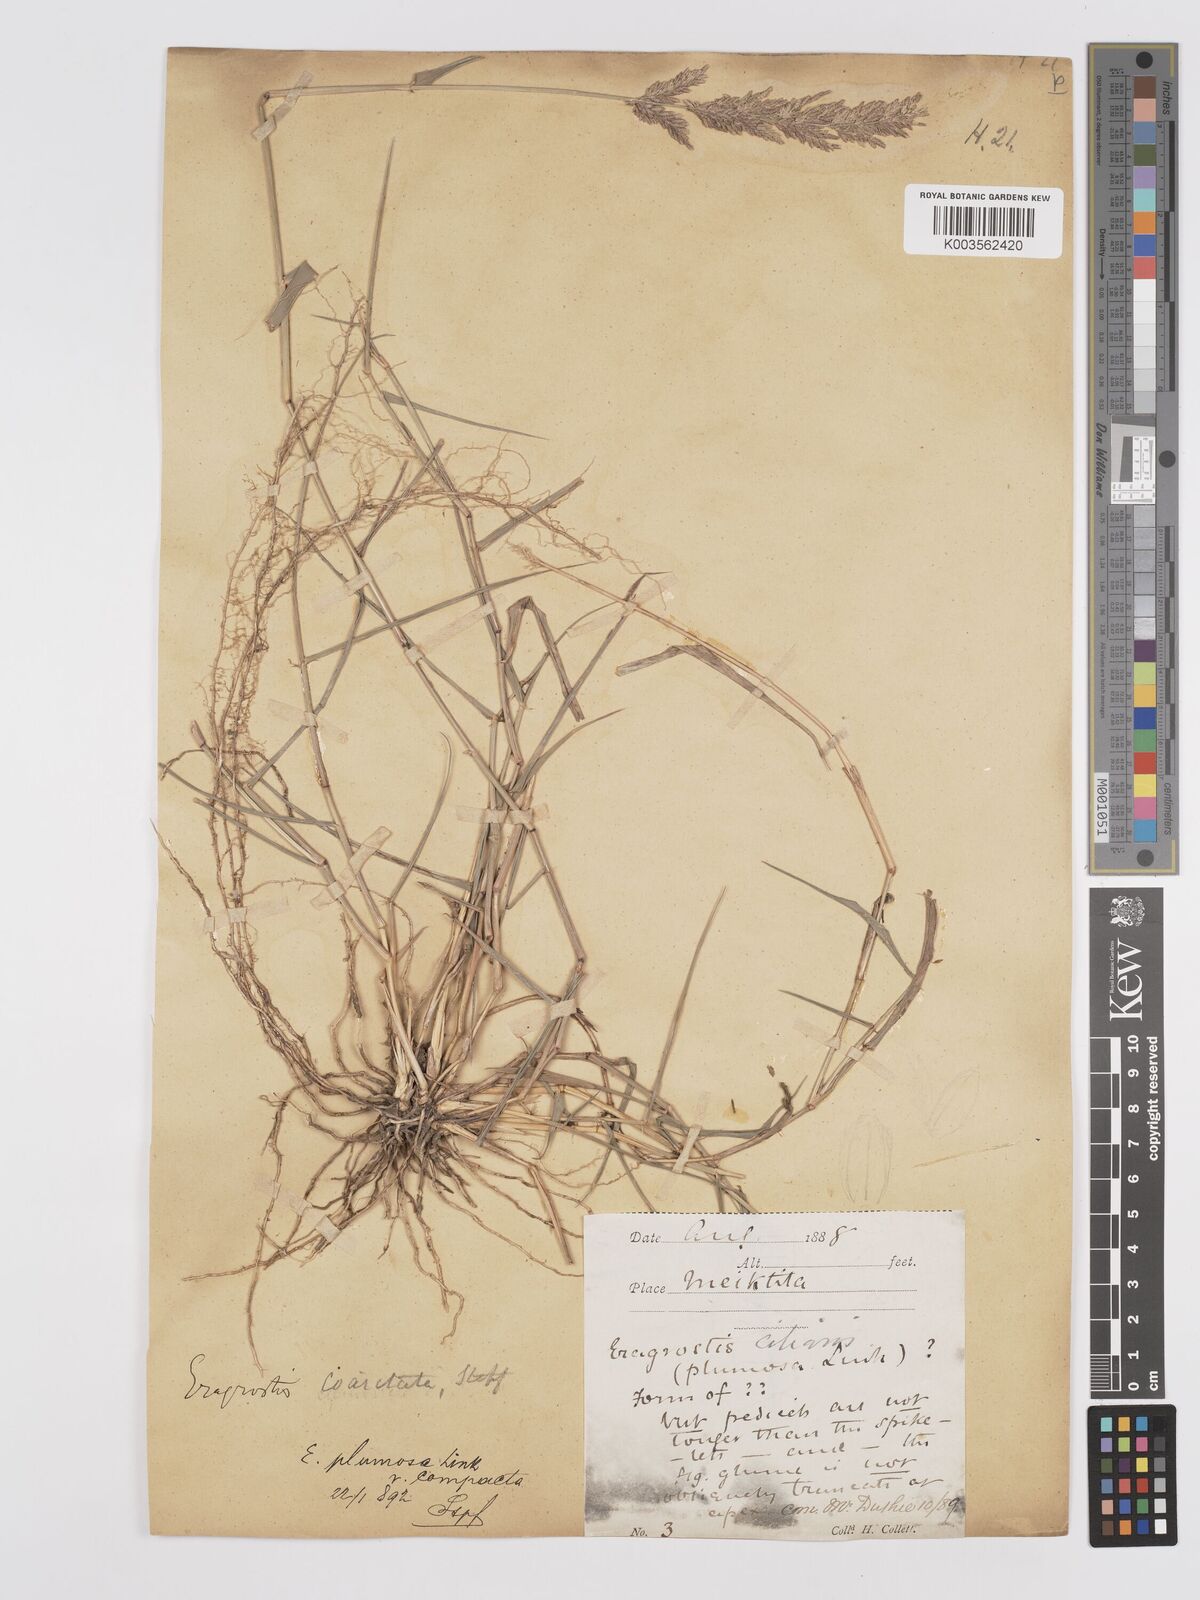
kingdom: Plantae
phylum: Tracheophyta
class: Liliopsida
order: Poales
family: Poaceae
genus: Eragrostis
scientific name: Eragrostis coarctata
